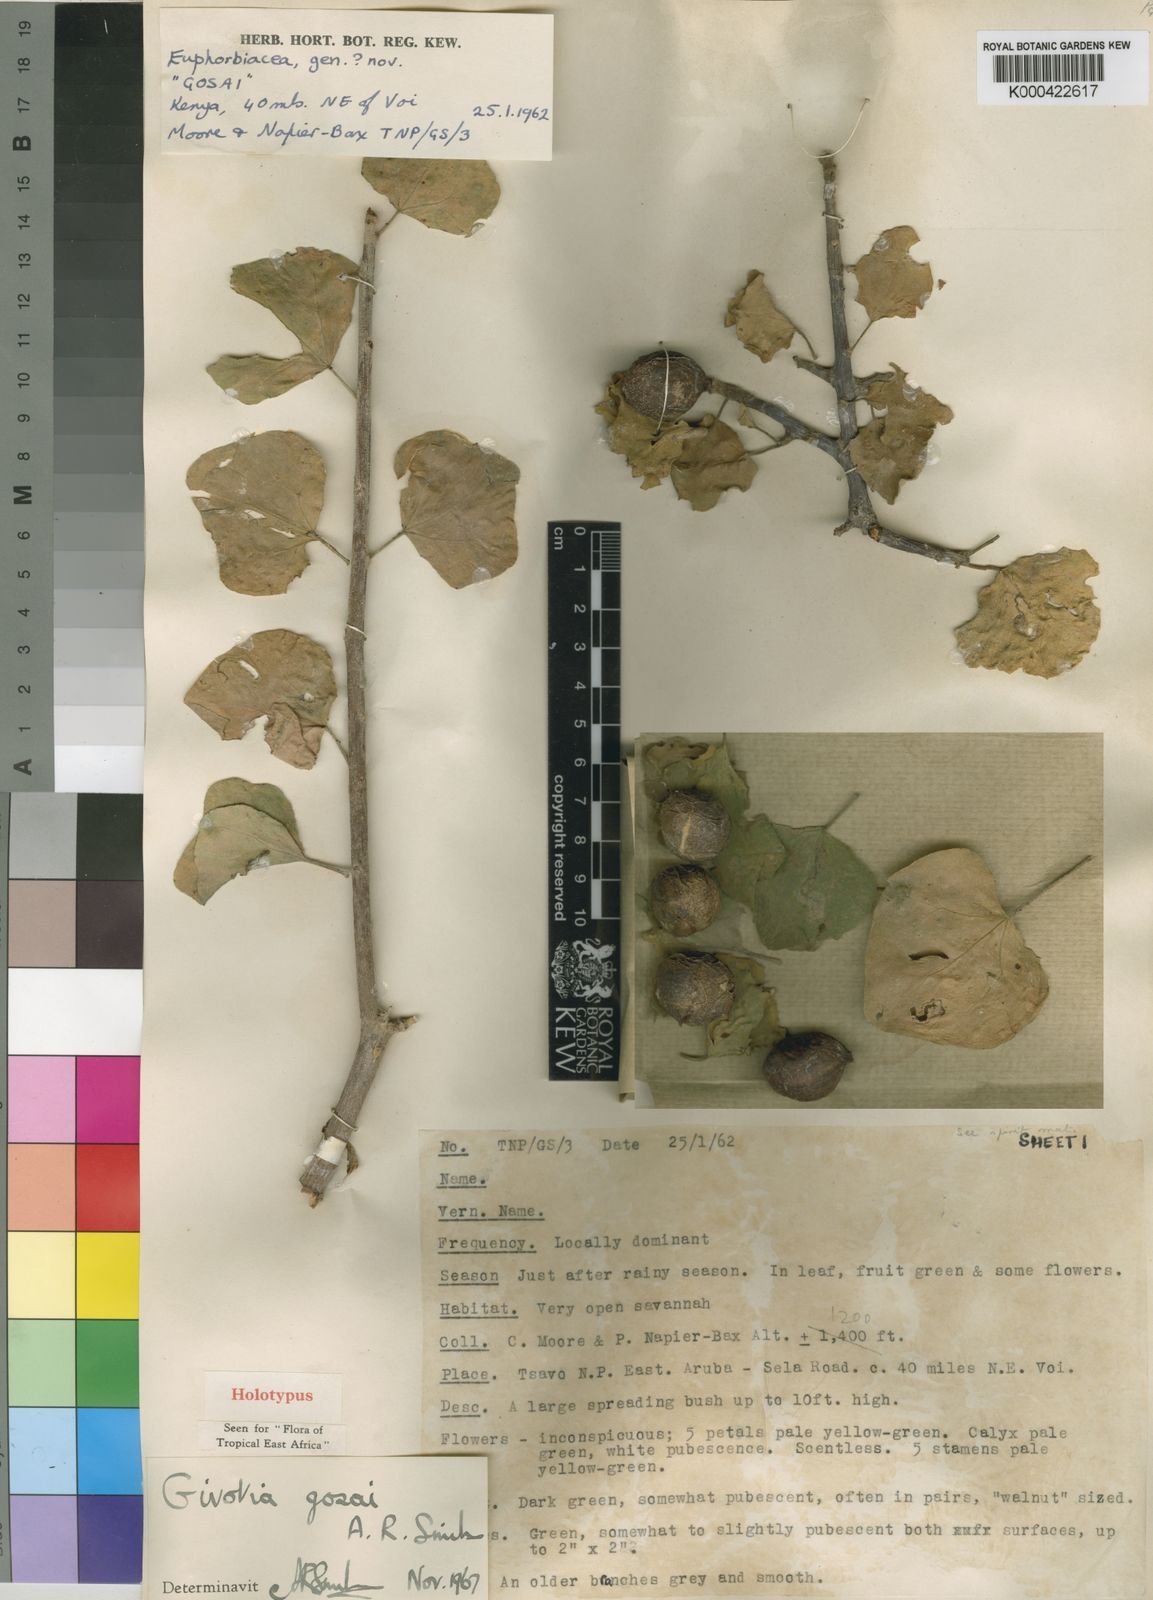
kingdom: Plantae
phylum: Tracheophyta
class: Magnoliopsida
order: Malpighiales
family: Euphorbiaceae
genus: Givotia
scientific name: Givotia gosai
